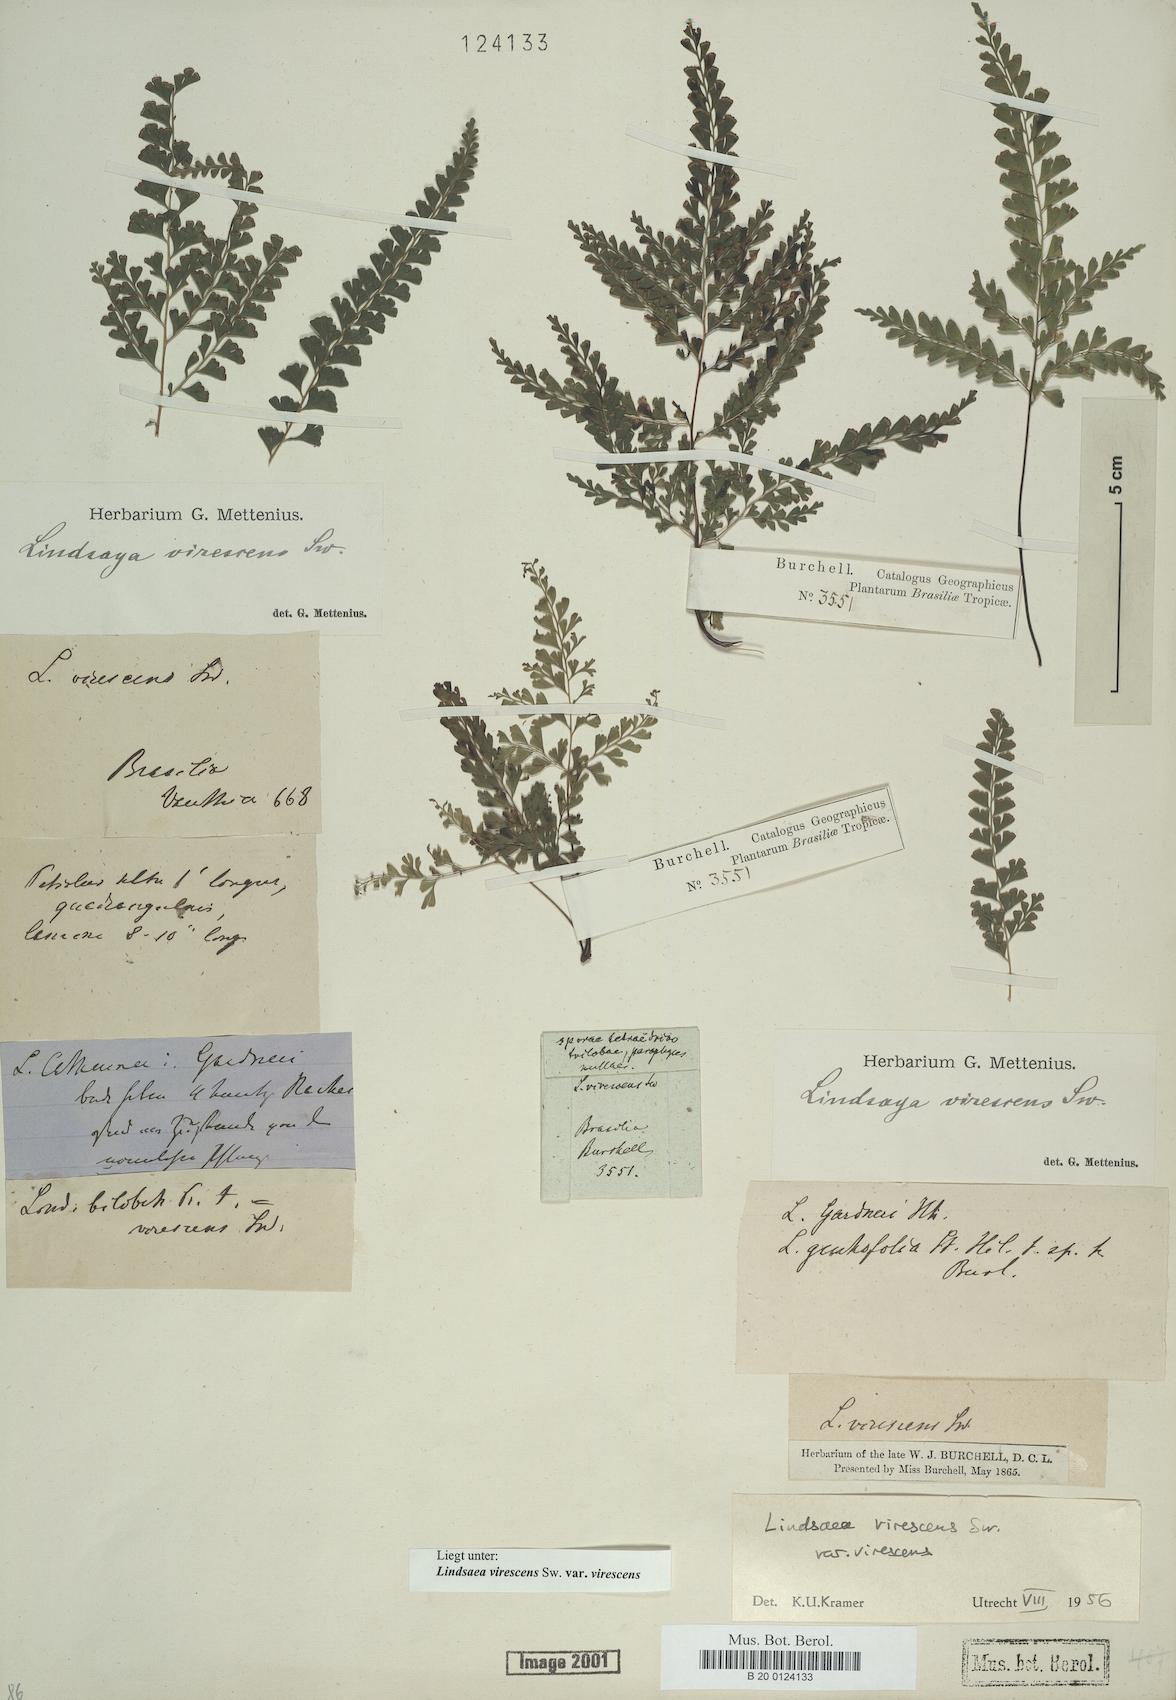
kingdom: Plantae
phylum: Tracheophyta
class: Polypodiopsida
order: Polypodiales
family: Lindsaeaceae
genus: Lindsaea
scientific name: Lindsaea virescens
